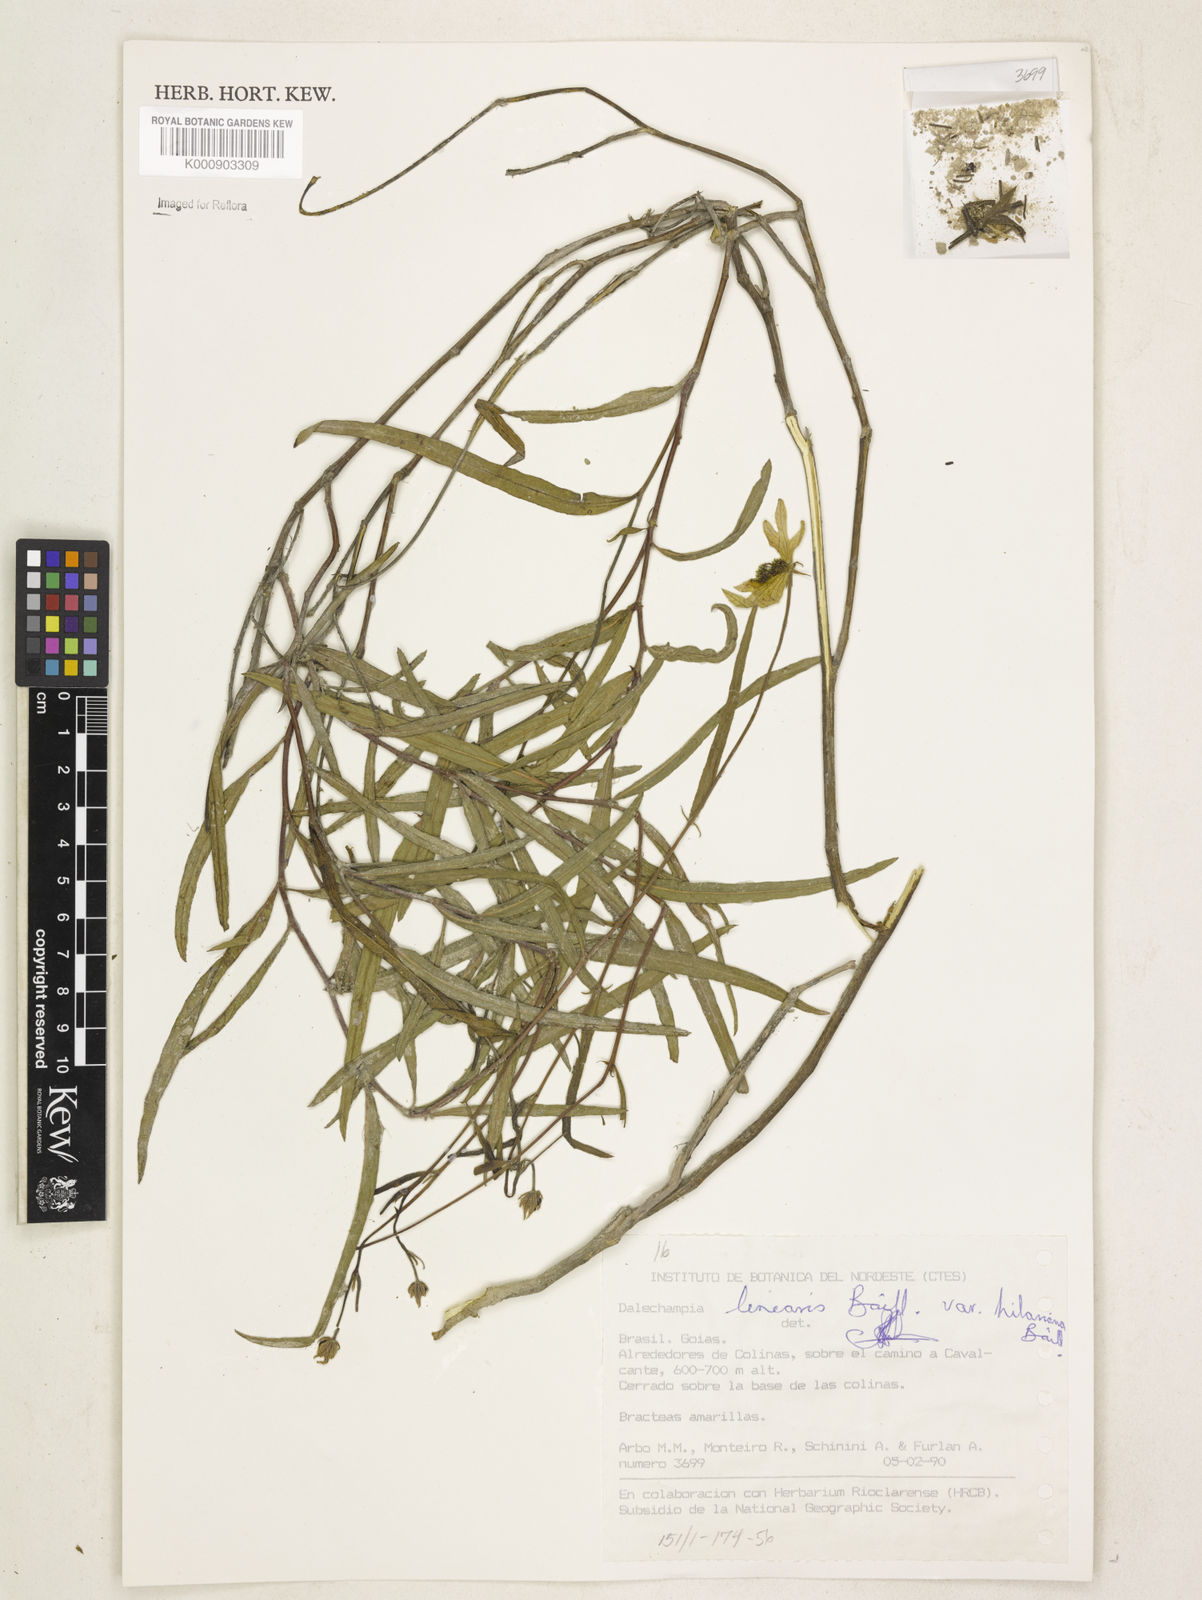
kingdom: Plantae
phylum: Tracheophyta
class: Magnoliopsida
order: Malpighiales
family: Euphorbiaceae
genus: Dalechampia
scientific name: Dalechampia linearis
